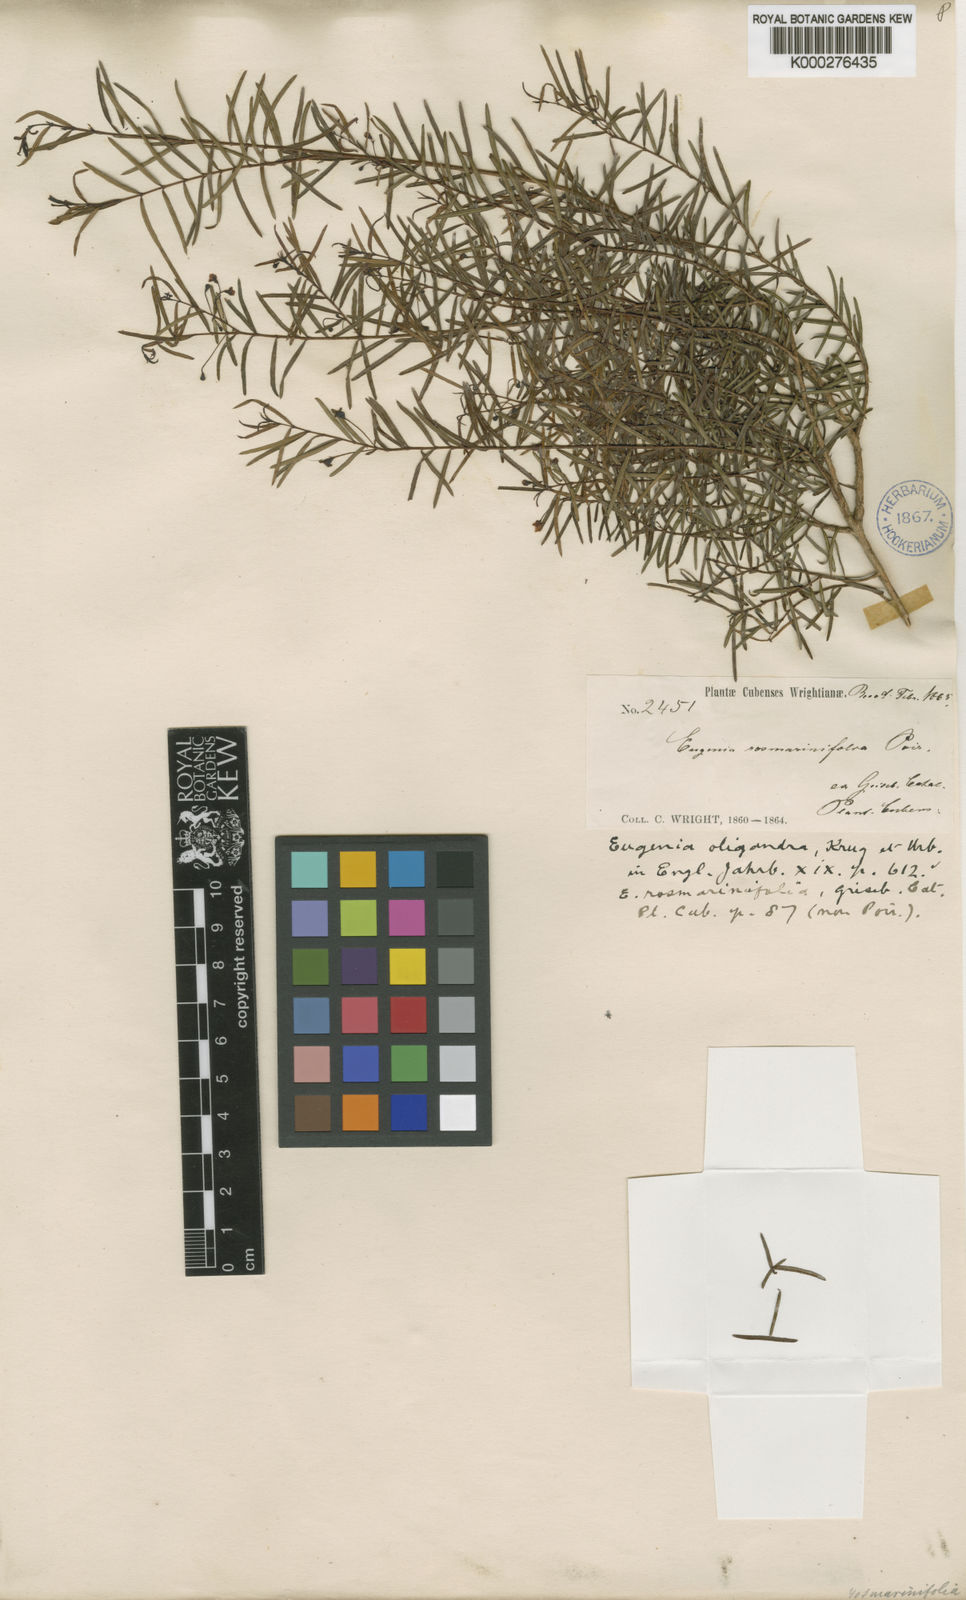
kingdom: Plantae
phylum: Tracheophyta
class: Magnoliopsida
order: Myrtales
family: Myrtaceae
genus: Eugenia
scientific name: Eugenia oligandra
